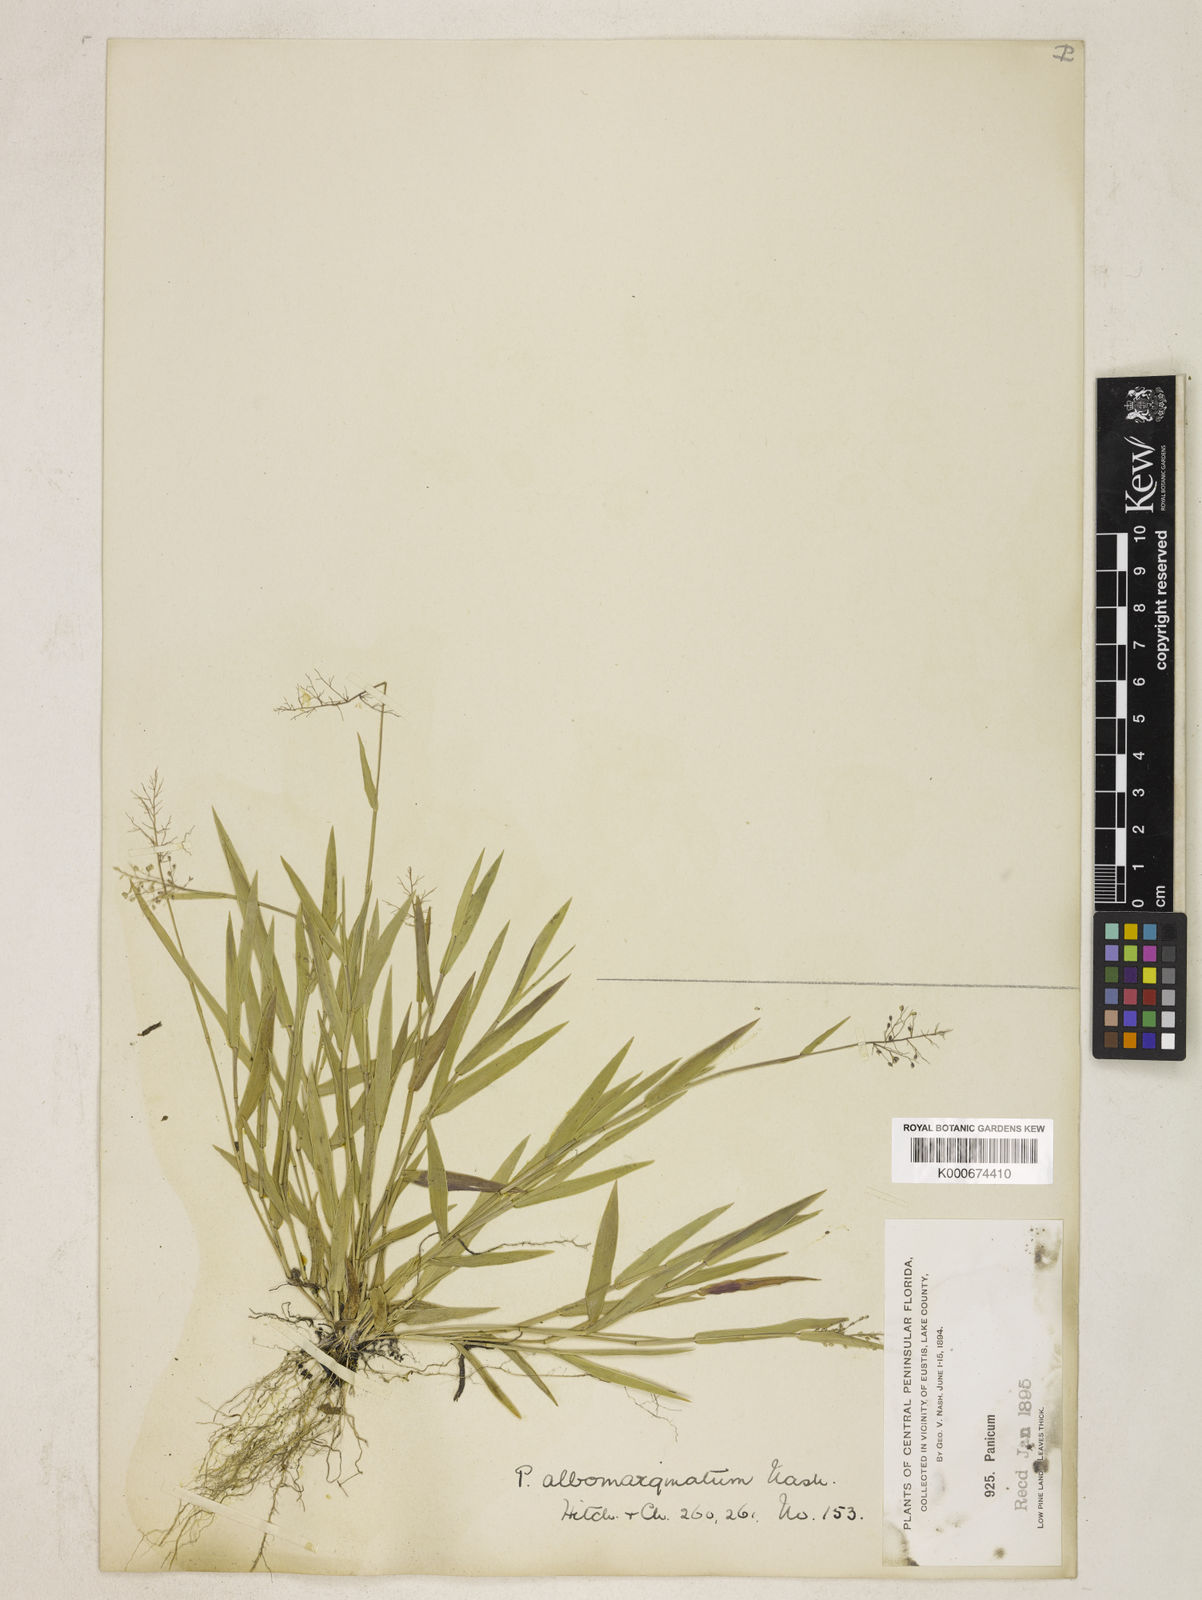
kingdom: Plantae
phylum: Tracheophyta
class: Liliopsida
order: Poales
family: Poaceae
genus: Dichanthelium
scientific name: Dichanthelium albomarginatum
